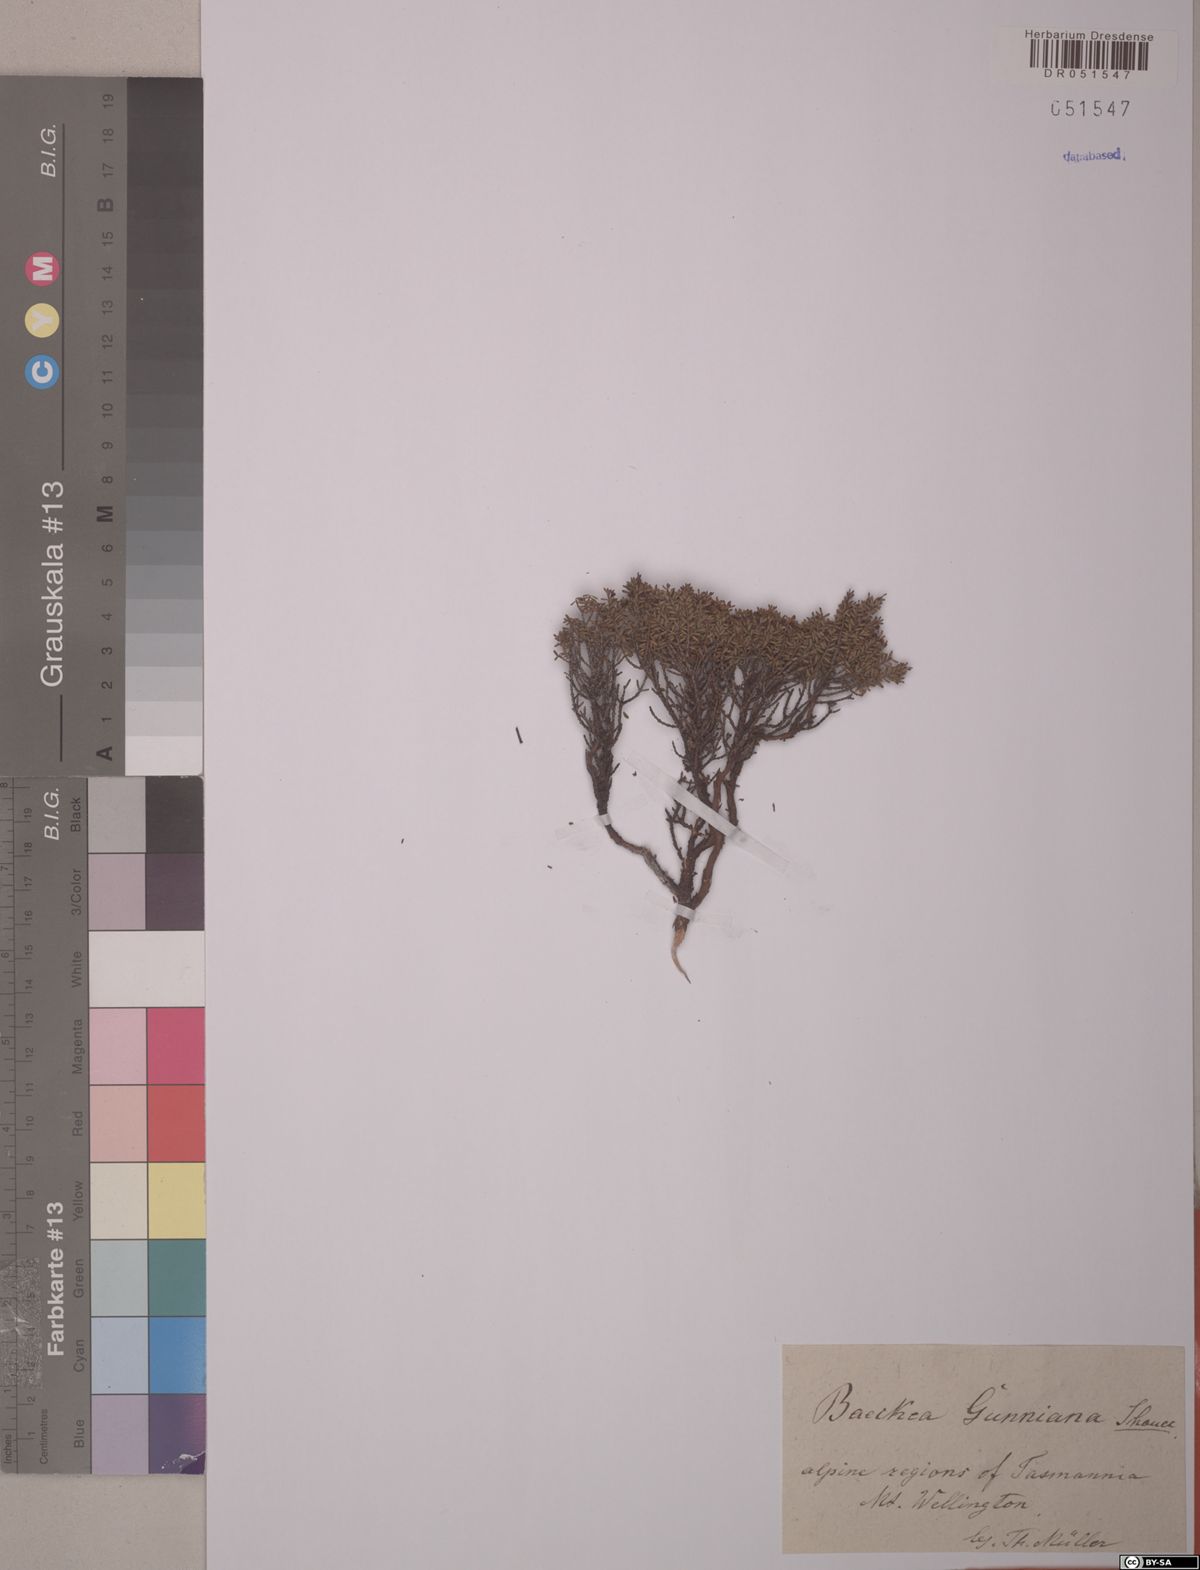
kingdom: Plantae
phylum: Tracheophyta
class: Magnoliopsida
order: Myrtales
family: Myrtaceae
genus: Baeckea
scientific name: Baeckea gunniana
